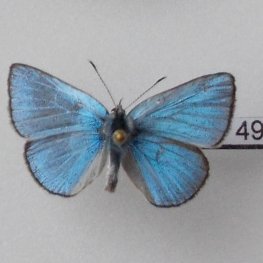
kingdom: Animalia
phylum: Arthropoda
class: Insecta
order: Lepidoptera
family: Lycaenidae
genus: Glaucopsyche
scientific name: Glaucopsyche lygdamus
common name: Silvery Blue
